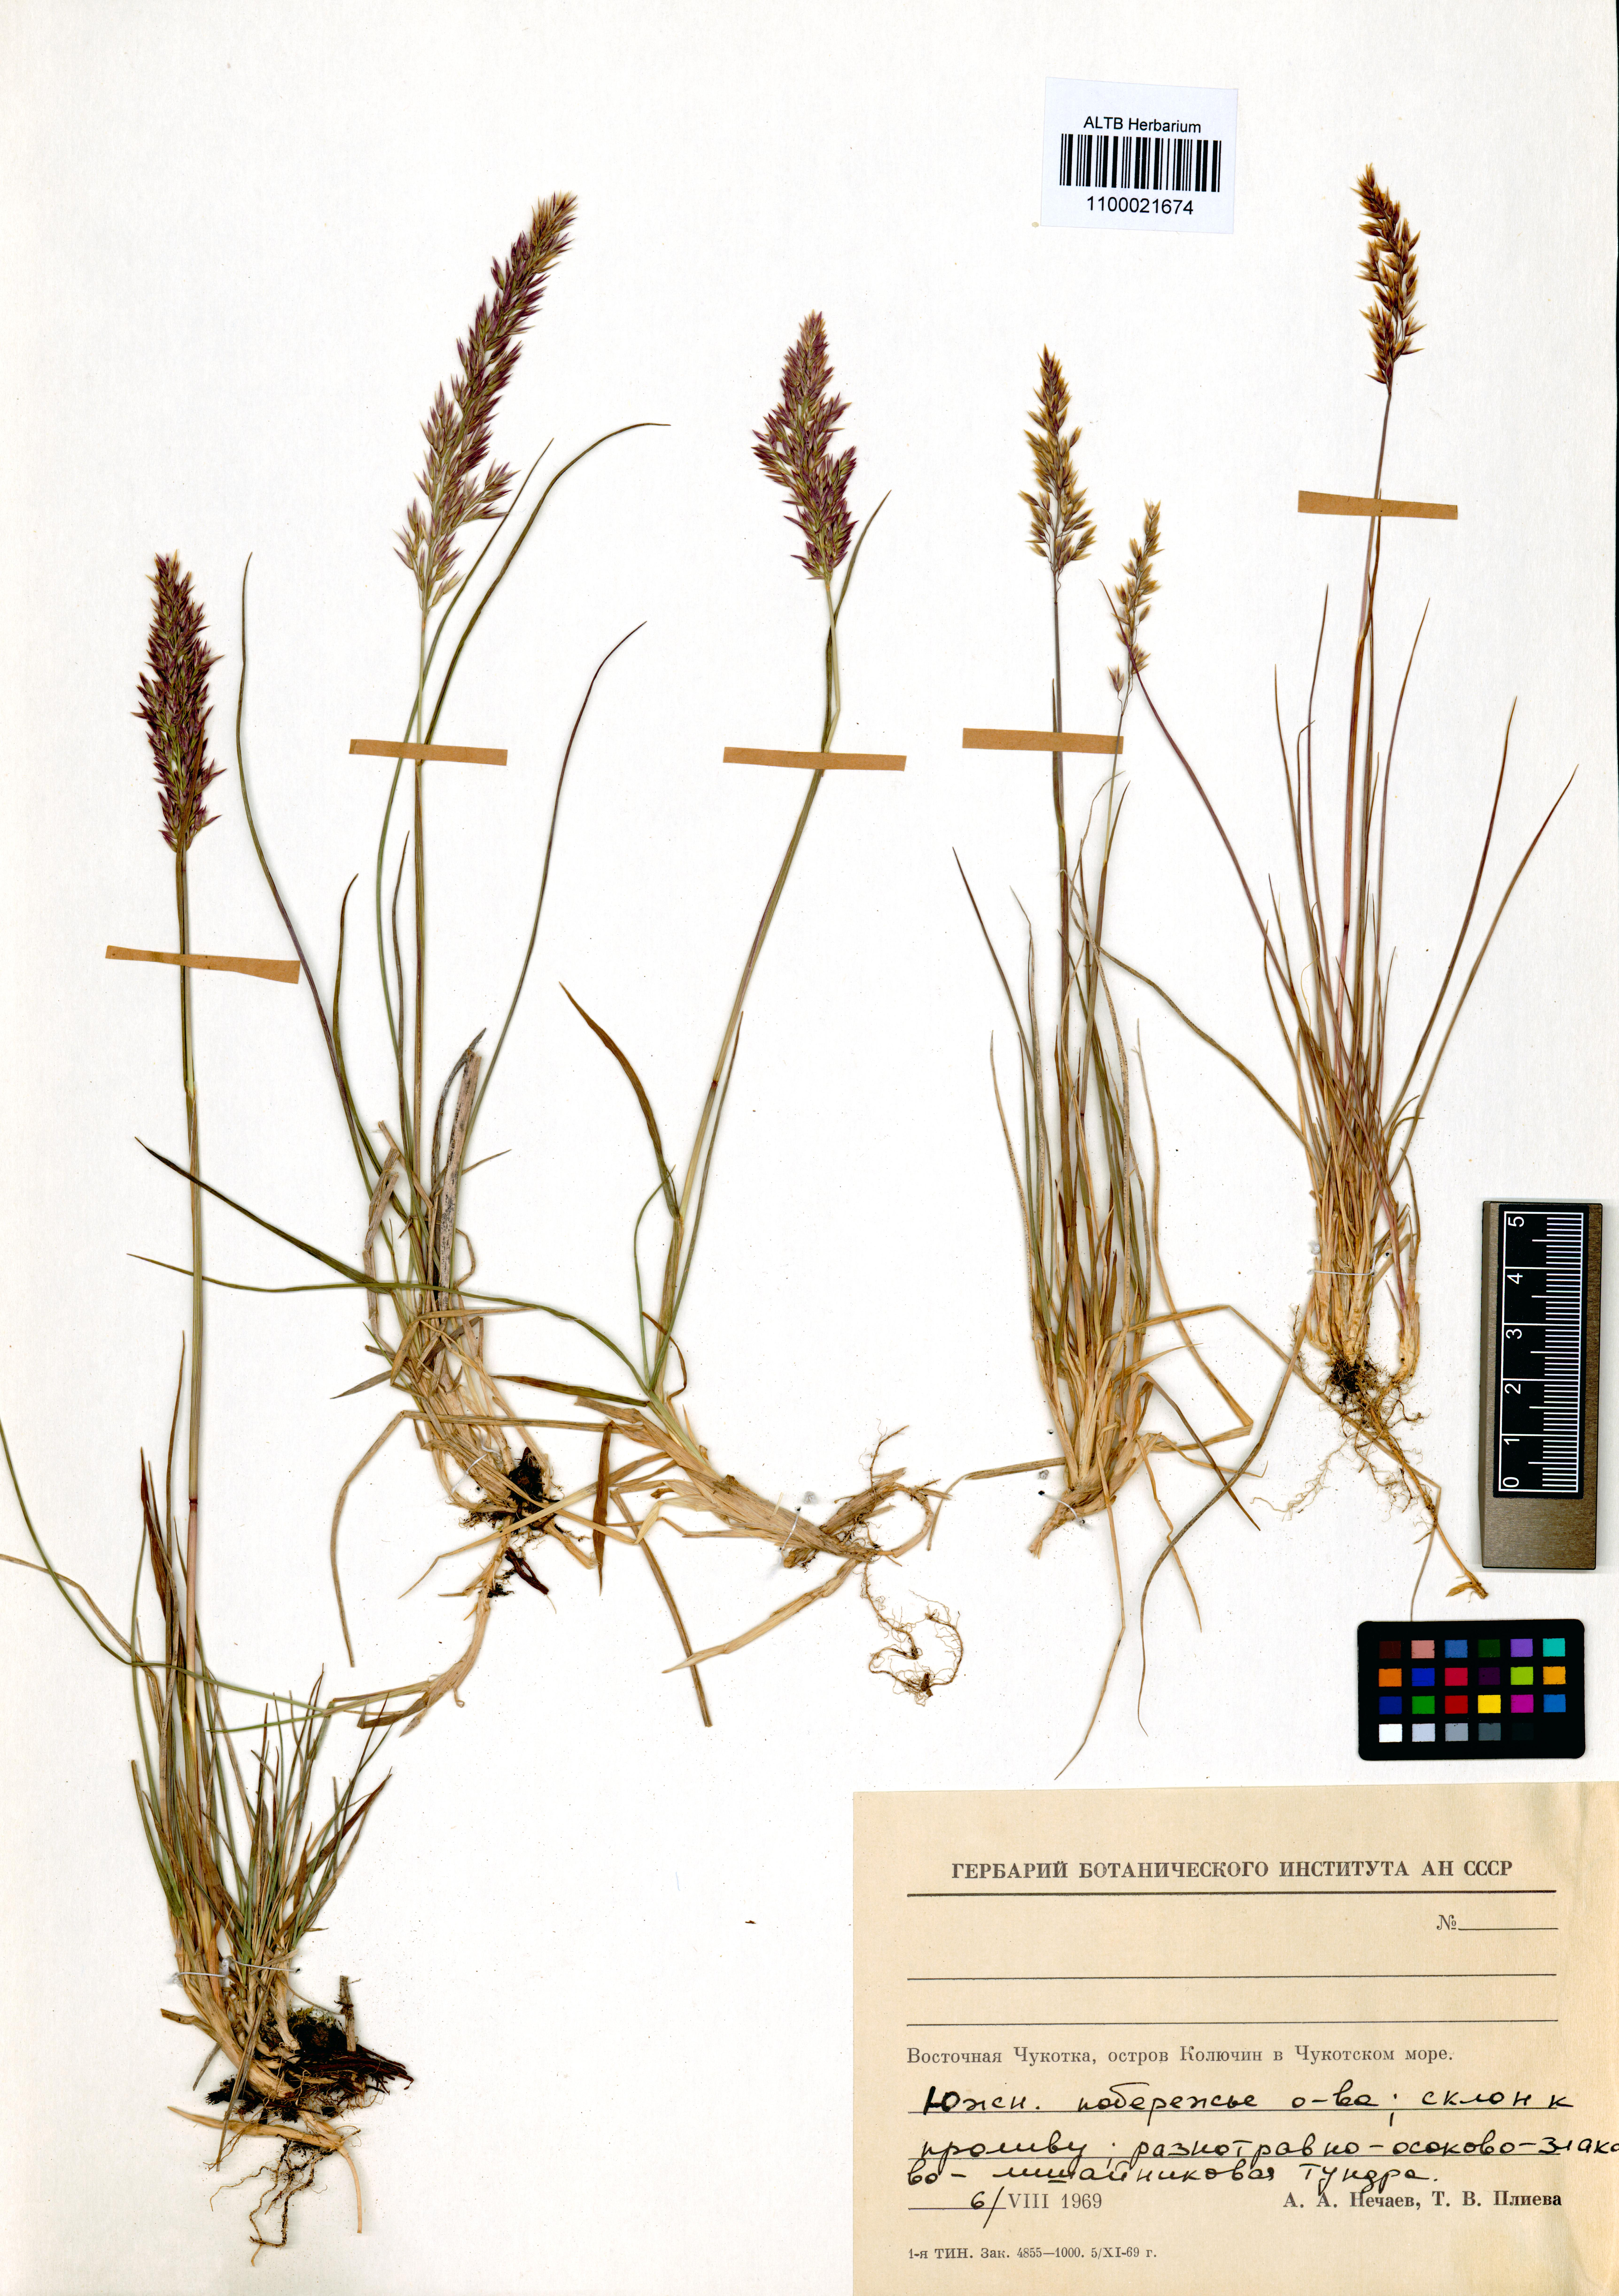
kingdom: Plantae
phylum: Tracheophyta
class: Liliopsida
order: Poales
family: Poaceae
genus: Calamagrostis
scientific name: Calamagrostis korotkyi
